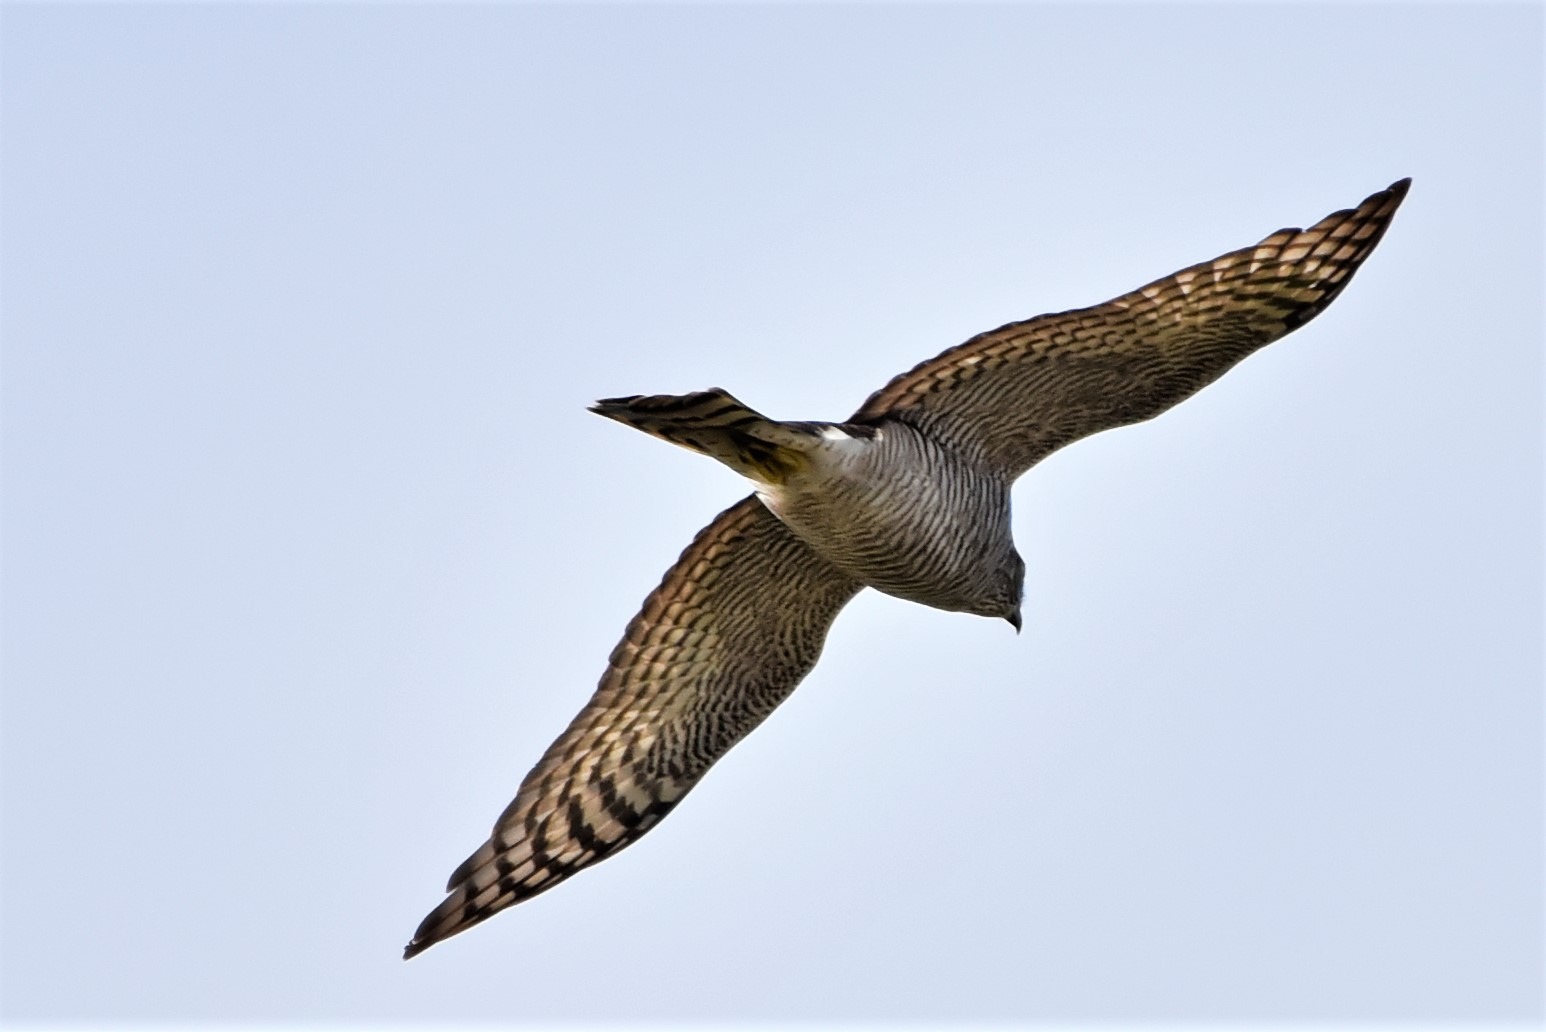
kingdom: Animalia
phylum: Chordata
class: Aves
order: Accipitriformes
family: Accipitridae
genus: Accipiter
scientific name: Accipiter nisus
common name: Spurvehøg
